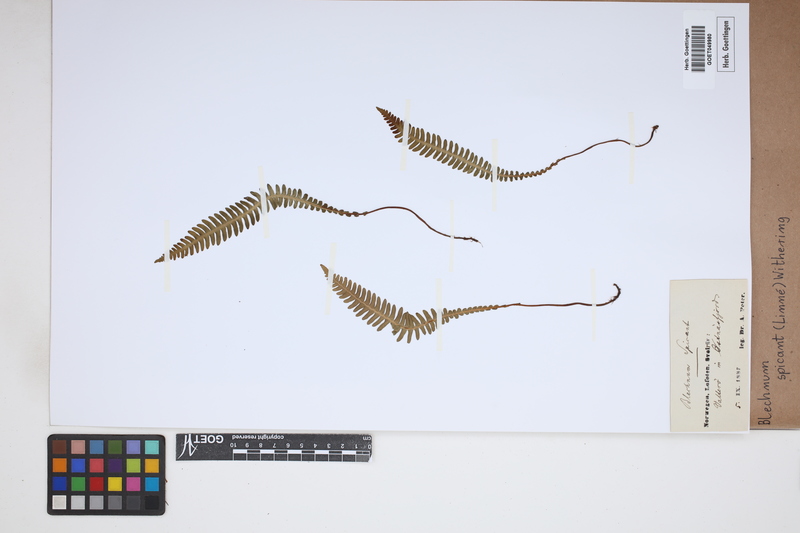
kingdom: Plantae
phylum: Tracheophyta
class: Polypodiopsida
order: Polypodiales
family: Blechnaceae
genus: Struthiopteris
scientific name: Struthiopteris spicant
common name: Deer fern
